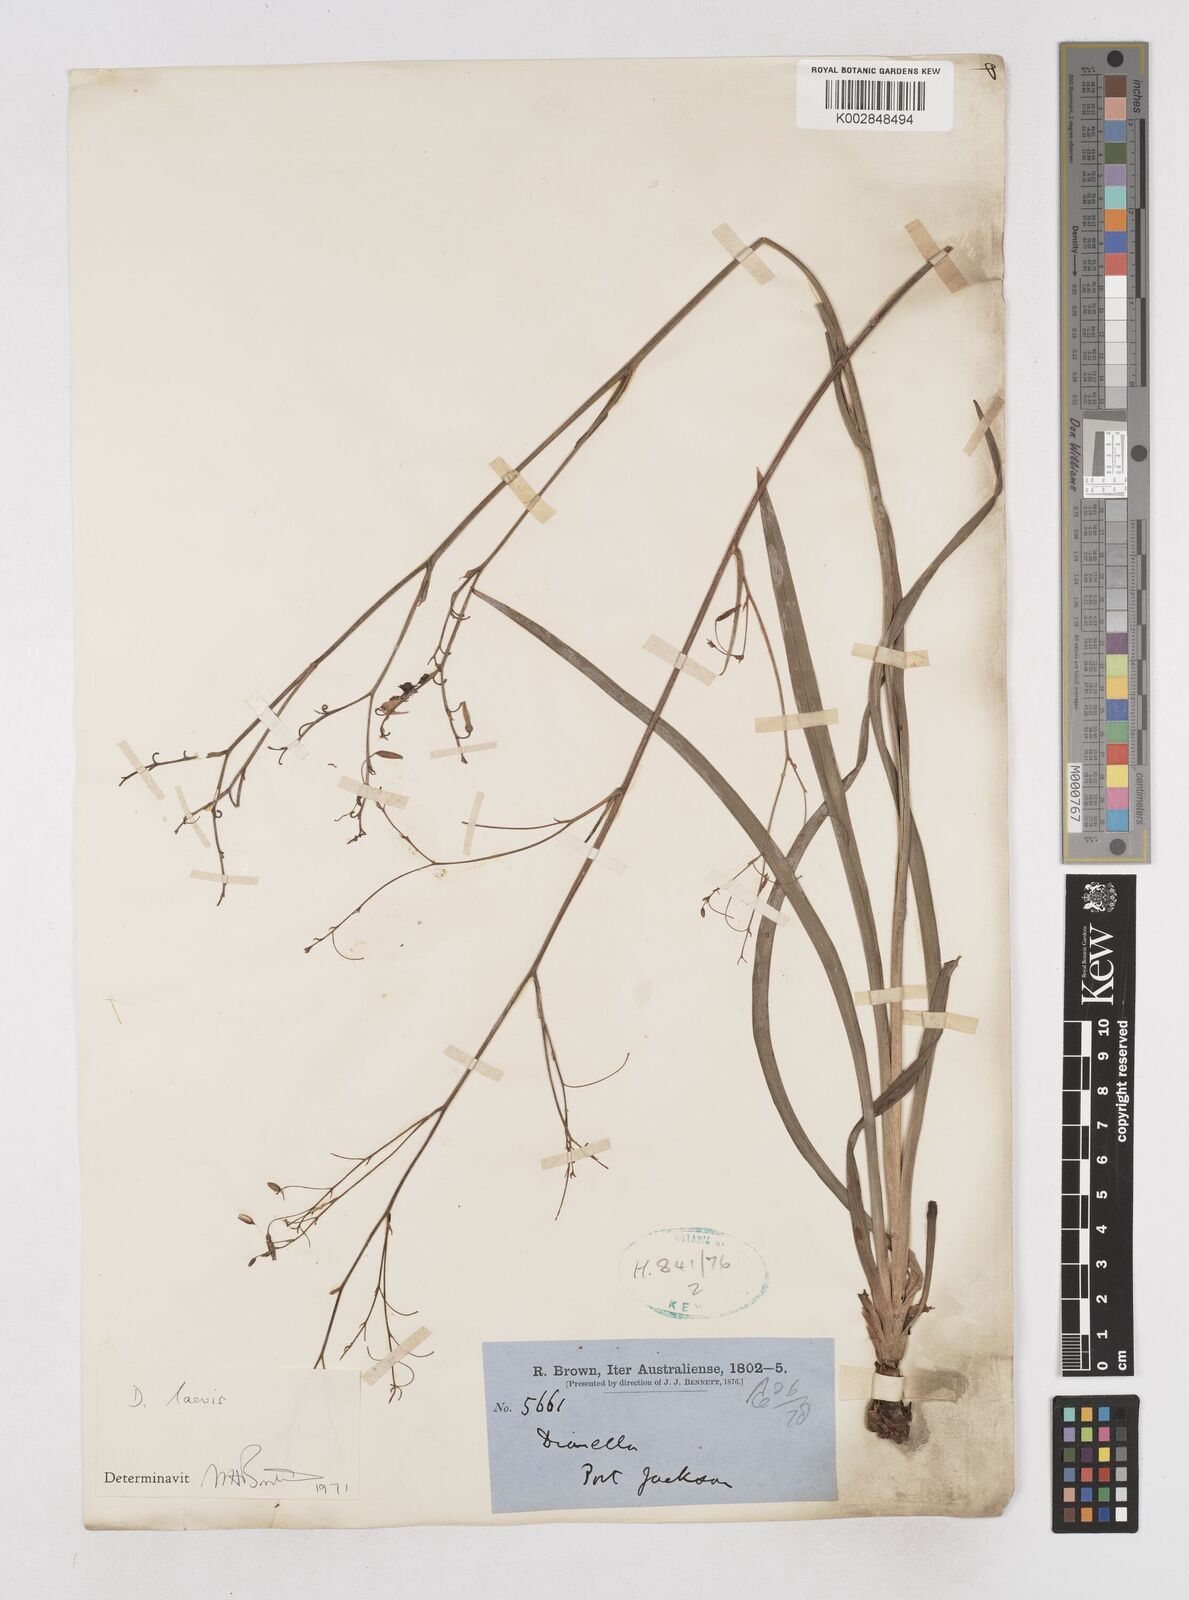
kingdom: Plantae
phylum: Tracheophyta
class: Liliopsida
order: Asparagales
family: Asphodelaceae
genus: Dianella
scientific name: Dianella longifolia
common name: Blue flax-lily
